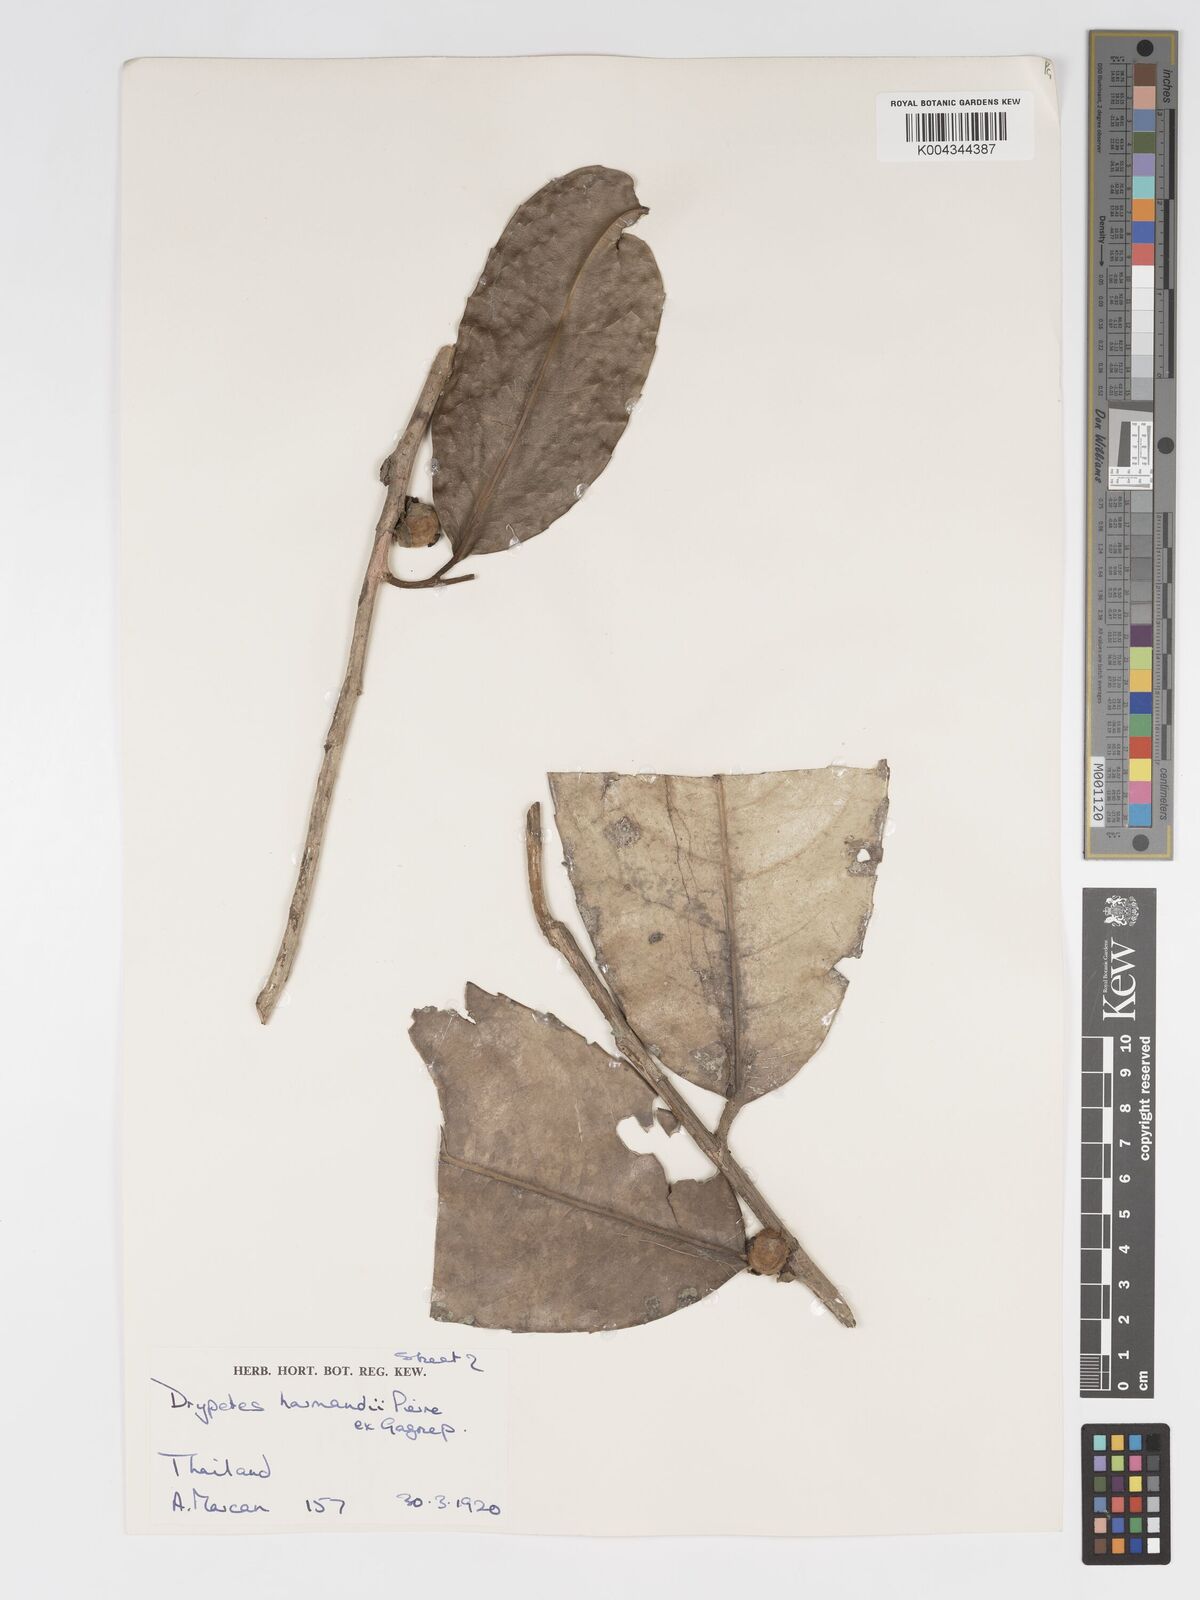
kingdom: Plantae
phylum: Tracheophyta
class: Magnoliopsida
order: Malpighiales
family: Putranjivaceae
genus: Drypetes
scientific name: Drypetes harmandii
